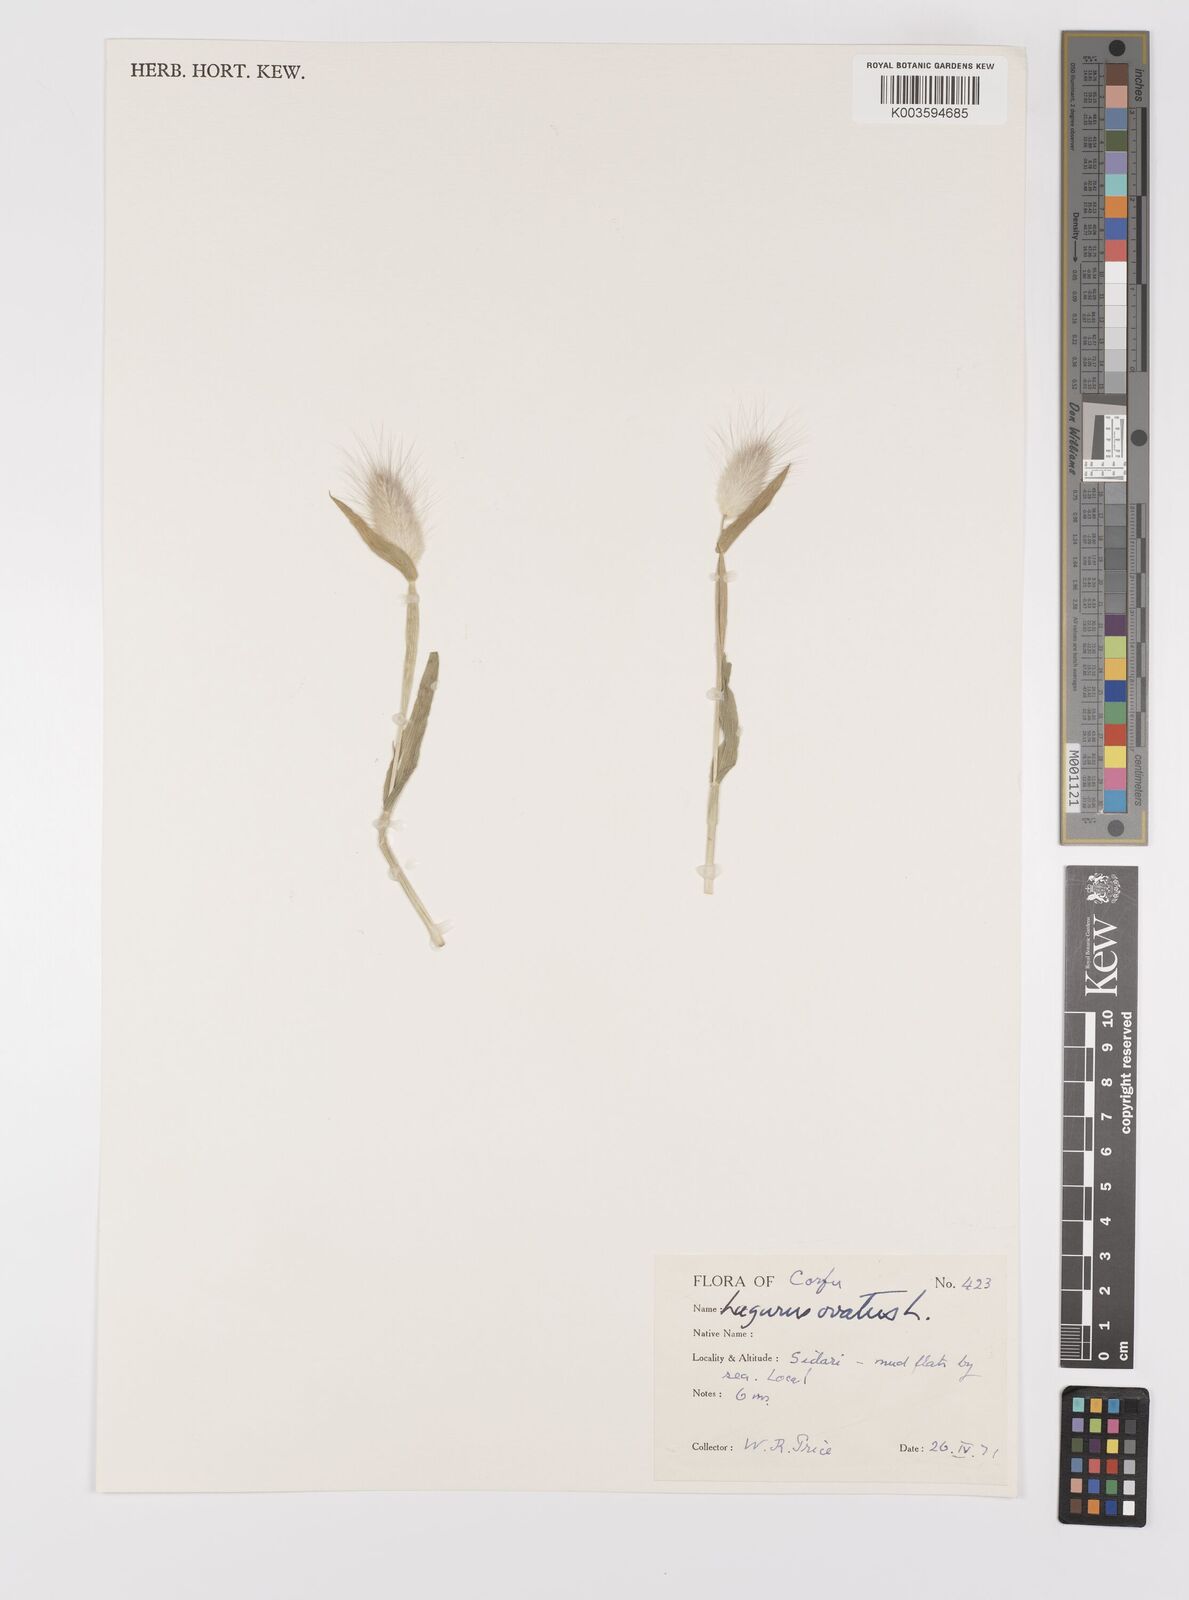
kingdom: Plantae
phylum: Tracheophyta
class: Liliopsida
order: Poales
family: Poaceae
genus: Lagurus
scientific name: Lagurus ovatus
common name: Hare's-tail
